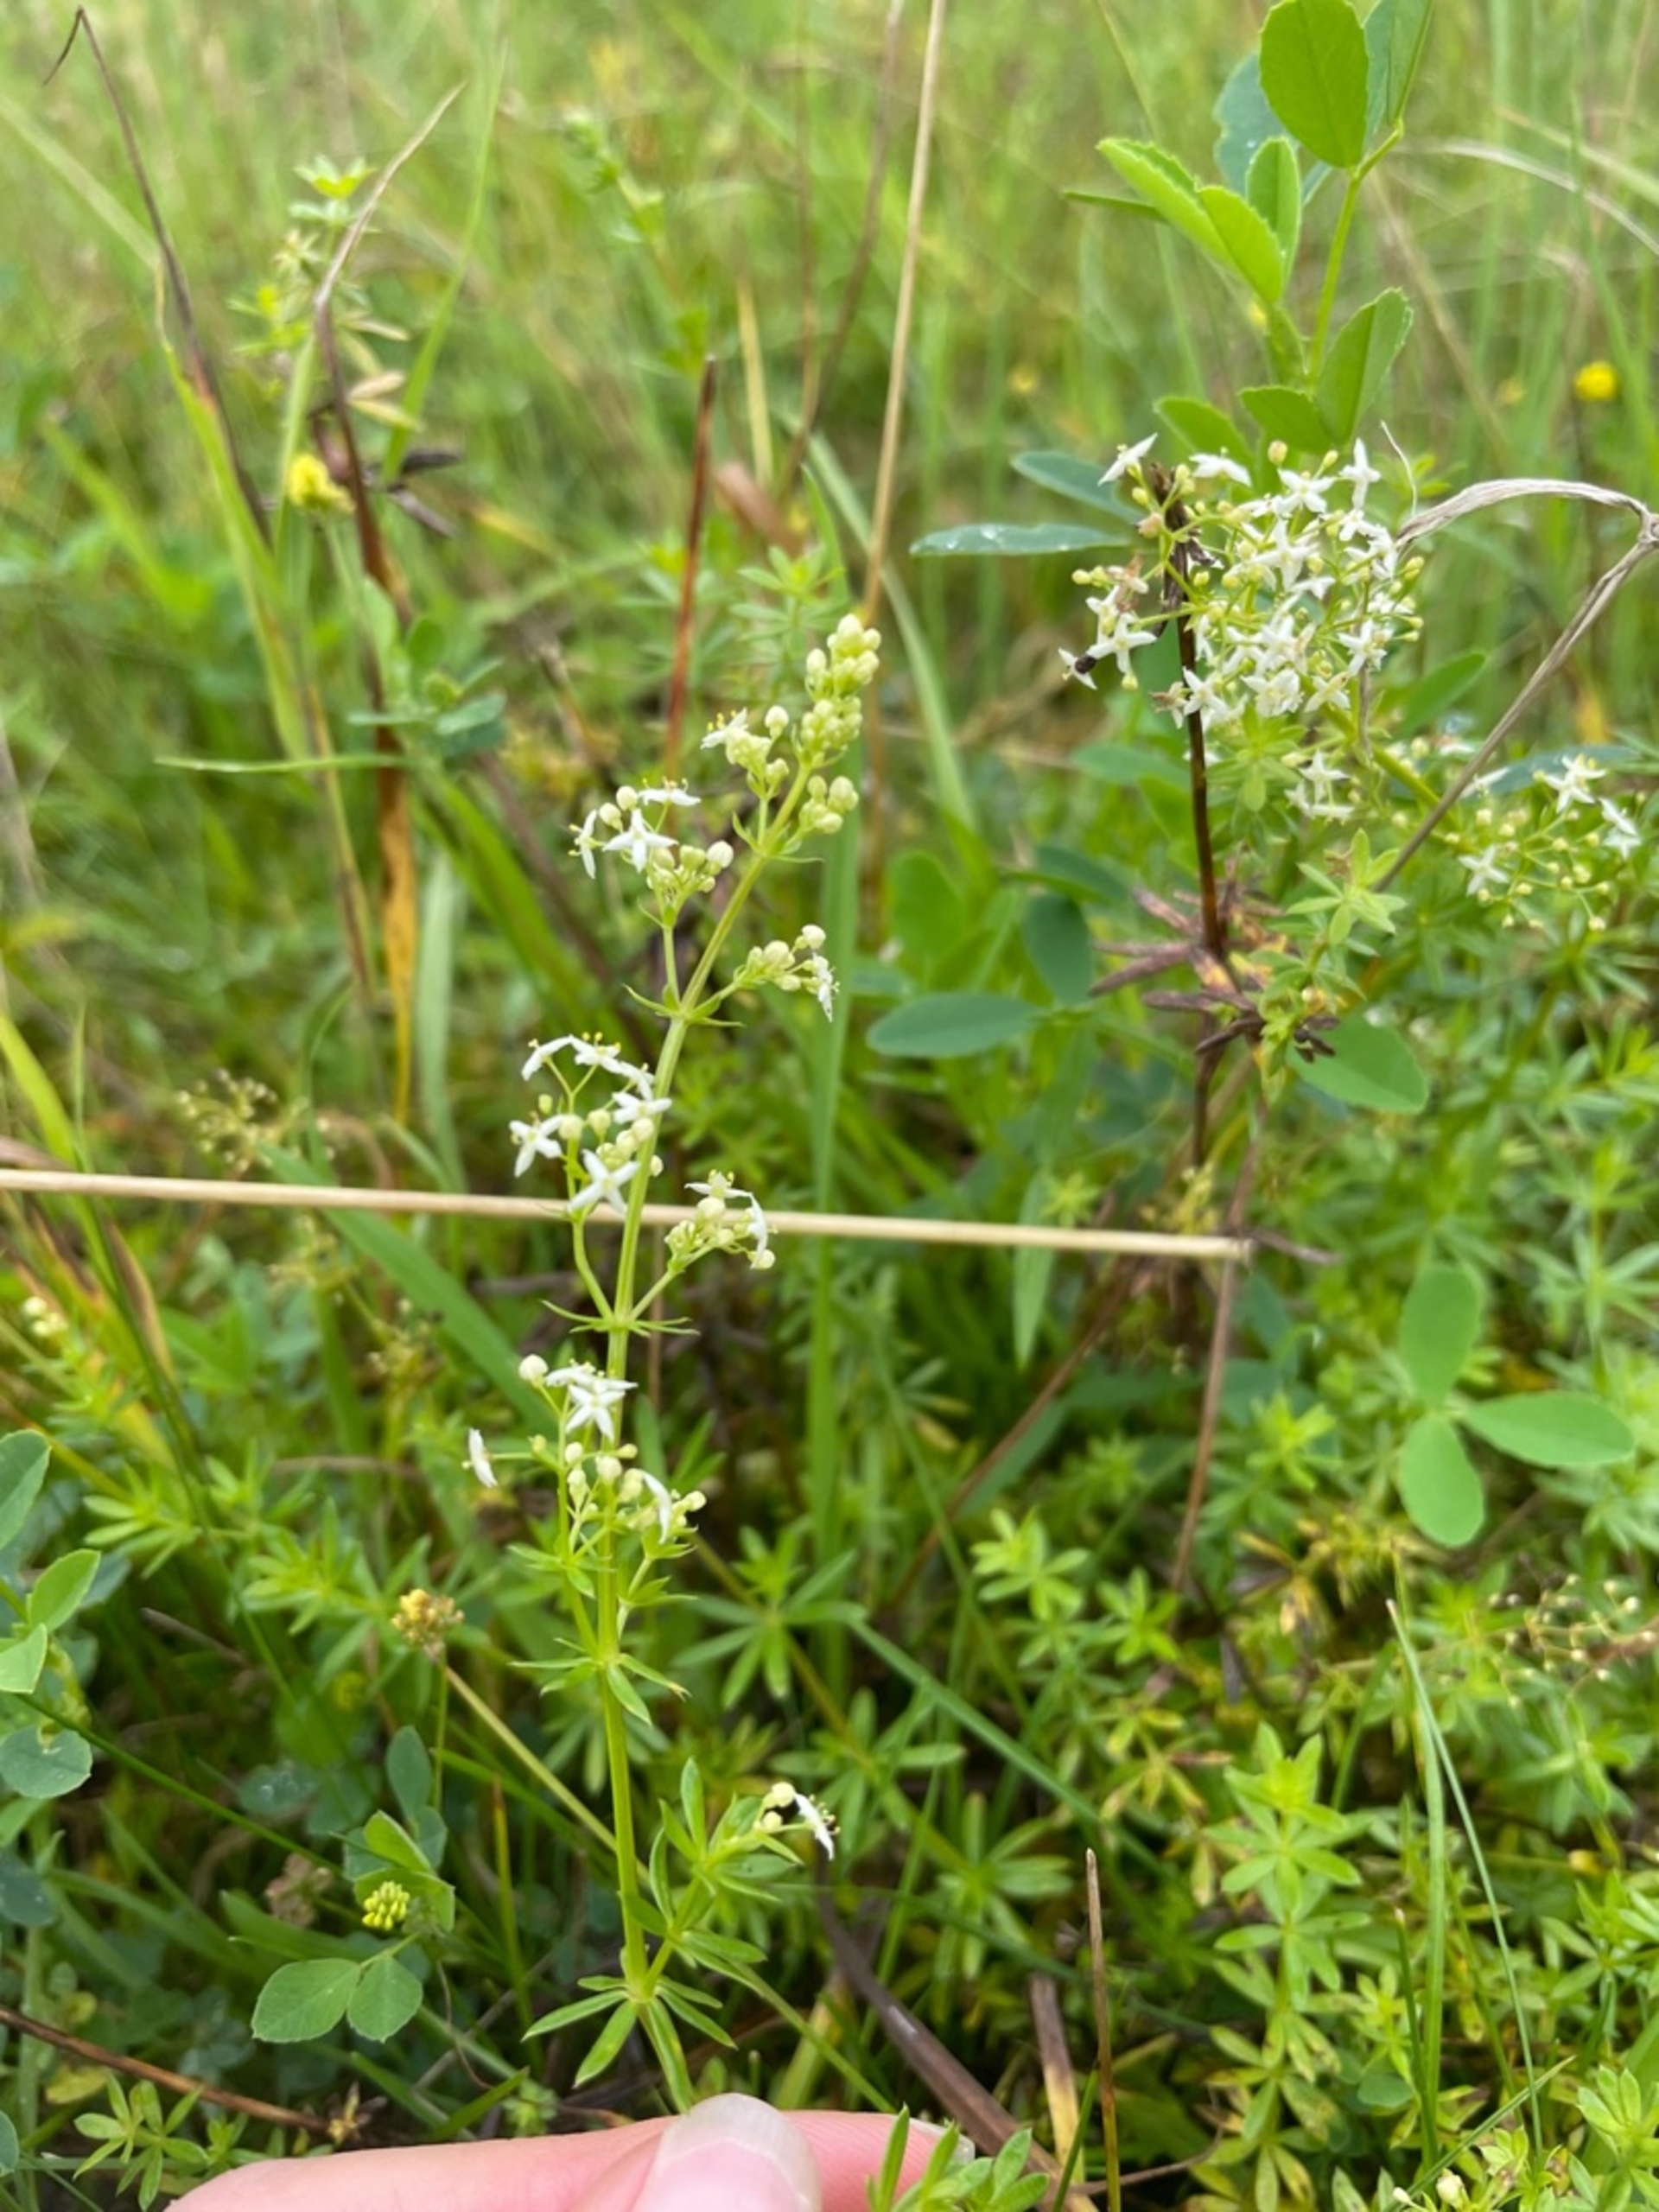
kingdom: Plantae
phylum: Tracheophyta
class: Magnoliopsida
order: Gentianales
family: Rubiaceae
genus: Galium
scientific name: Galium mollugo
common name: Hvid snerre
